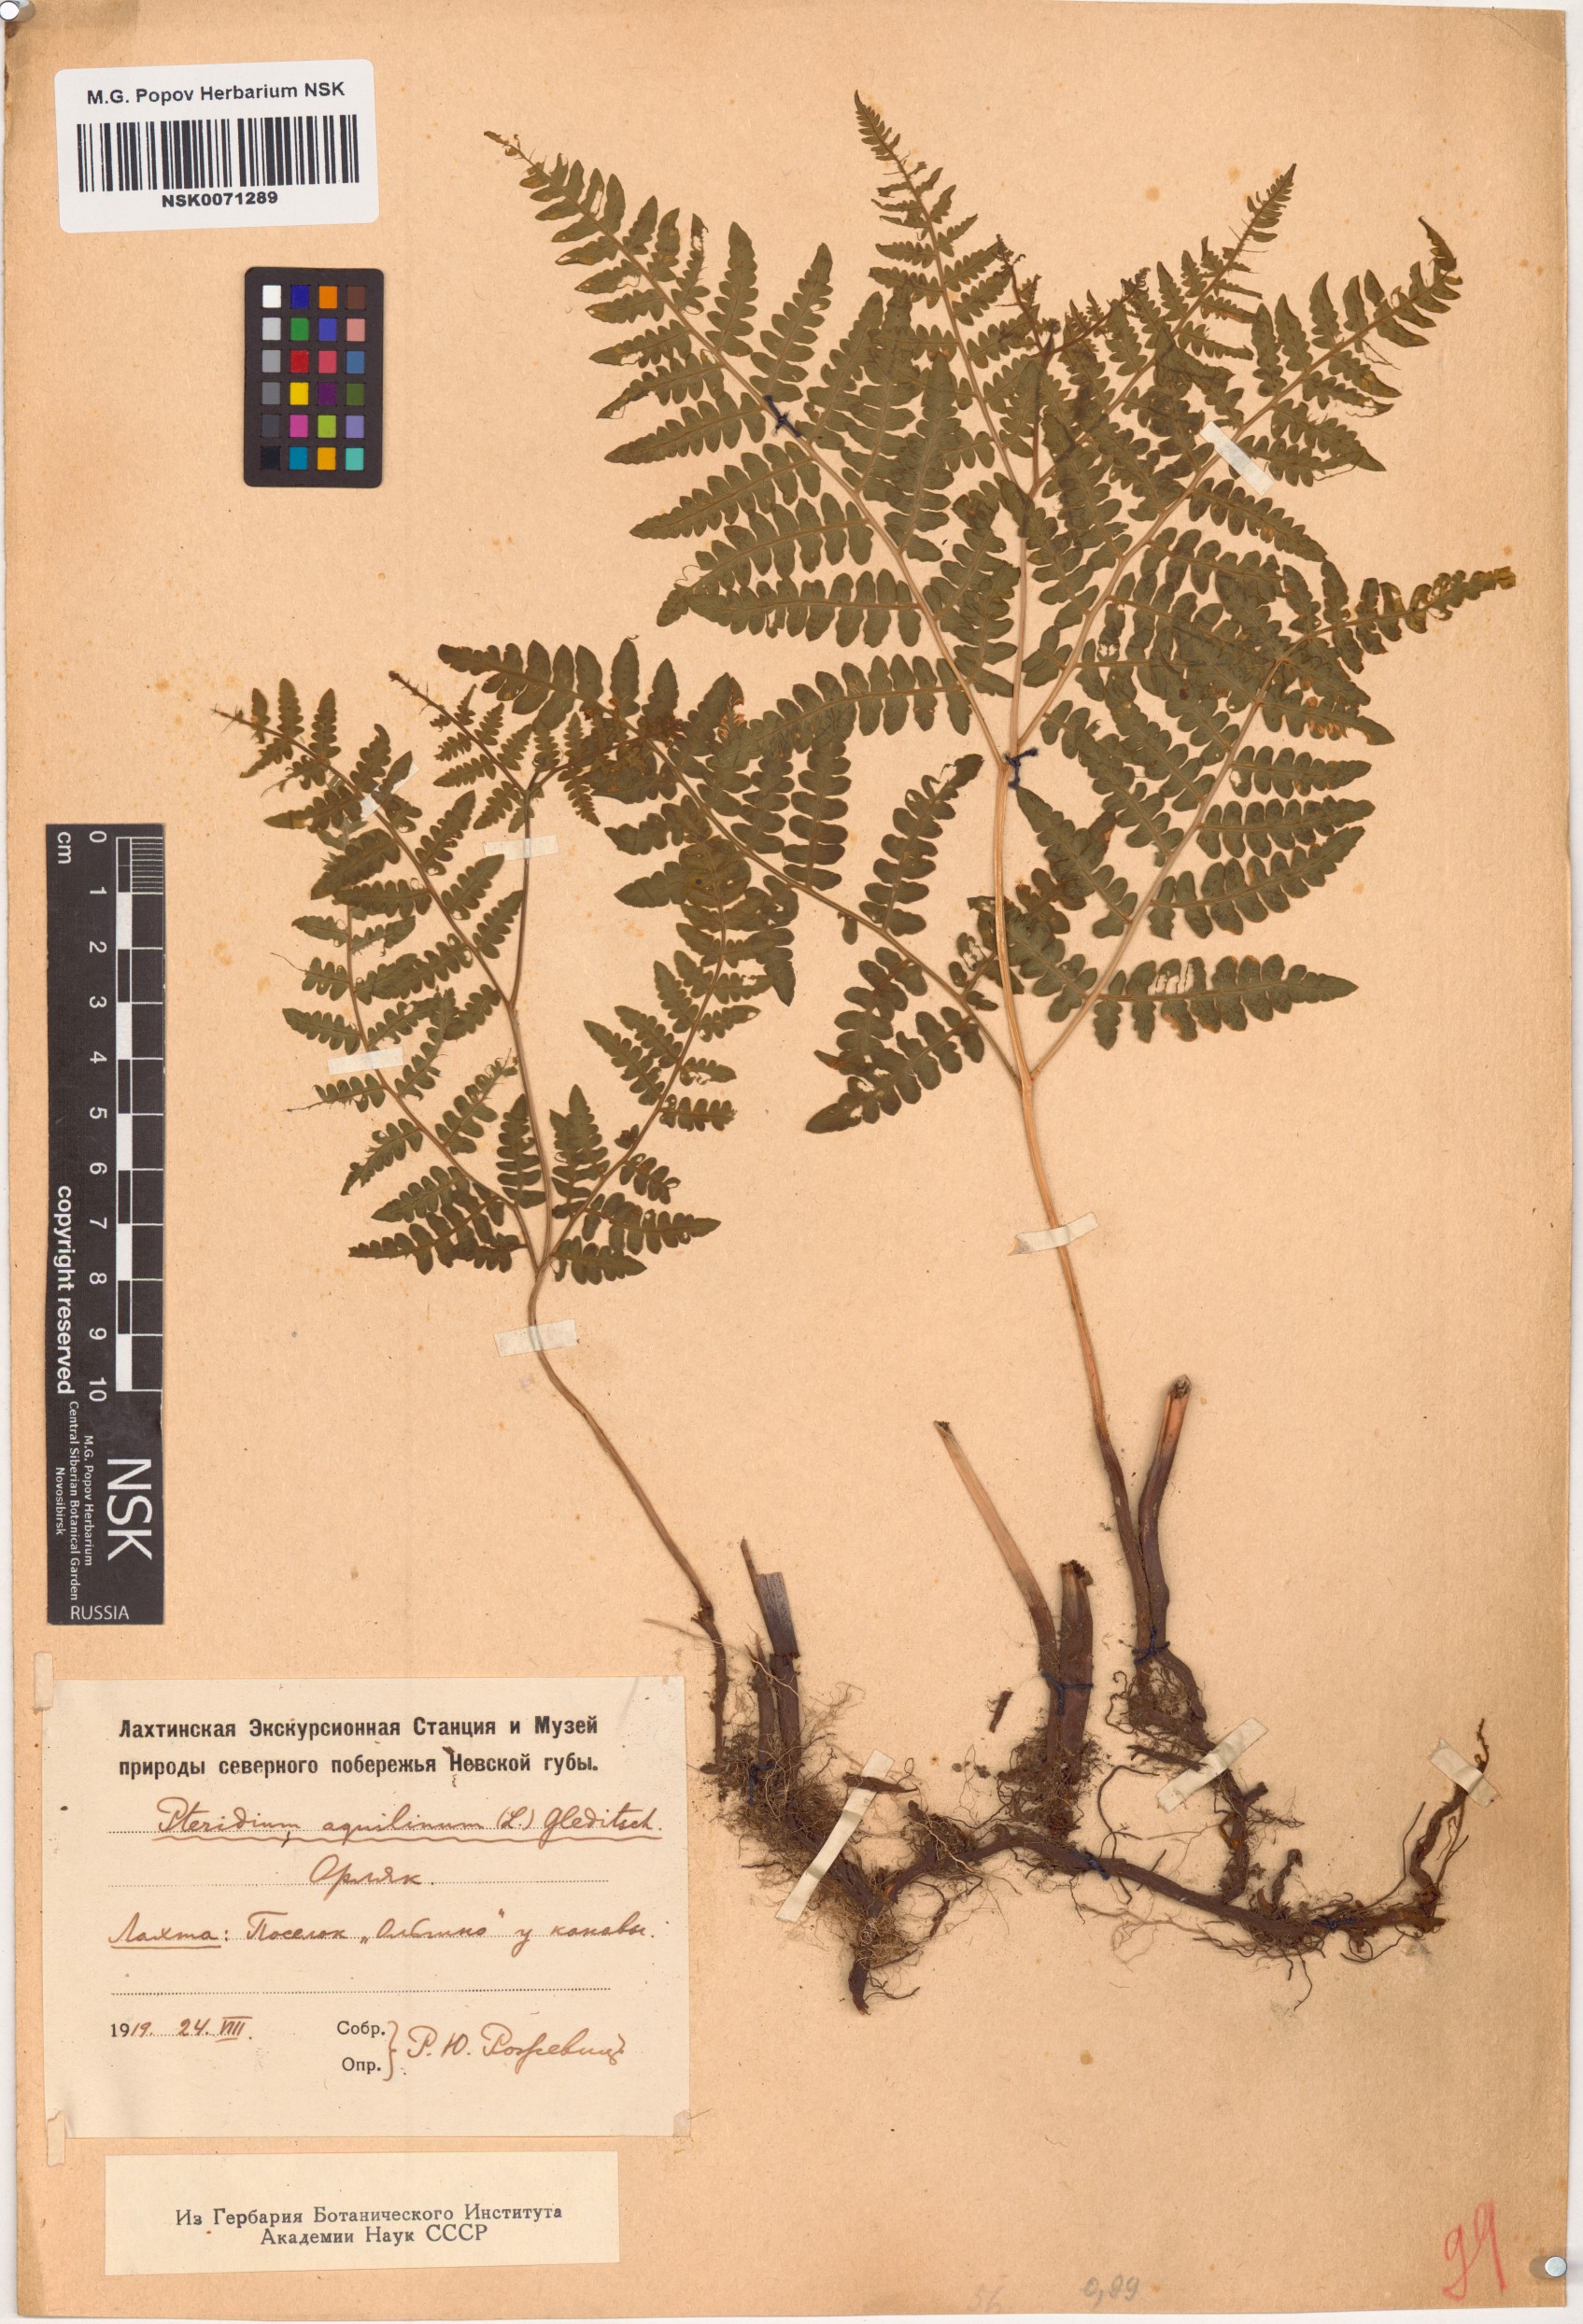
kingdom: Plantae
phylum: Tracheophyta
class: Polypodiopsida
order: Polypodiales
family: Dennstaedtiaceae
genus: Pteridium
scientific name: Pteridium aquilinum
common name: Bracken
